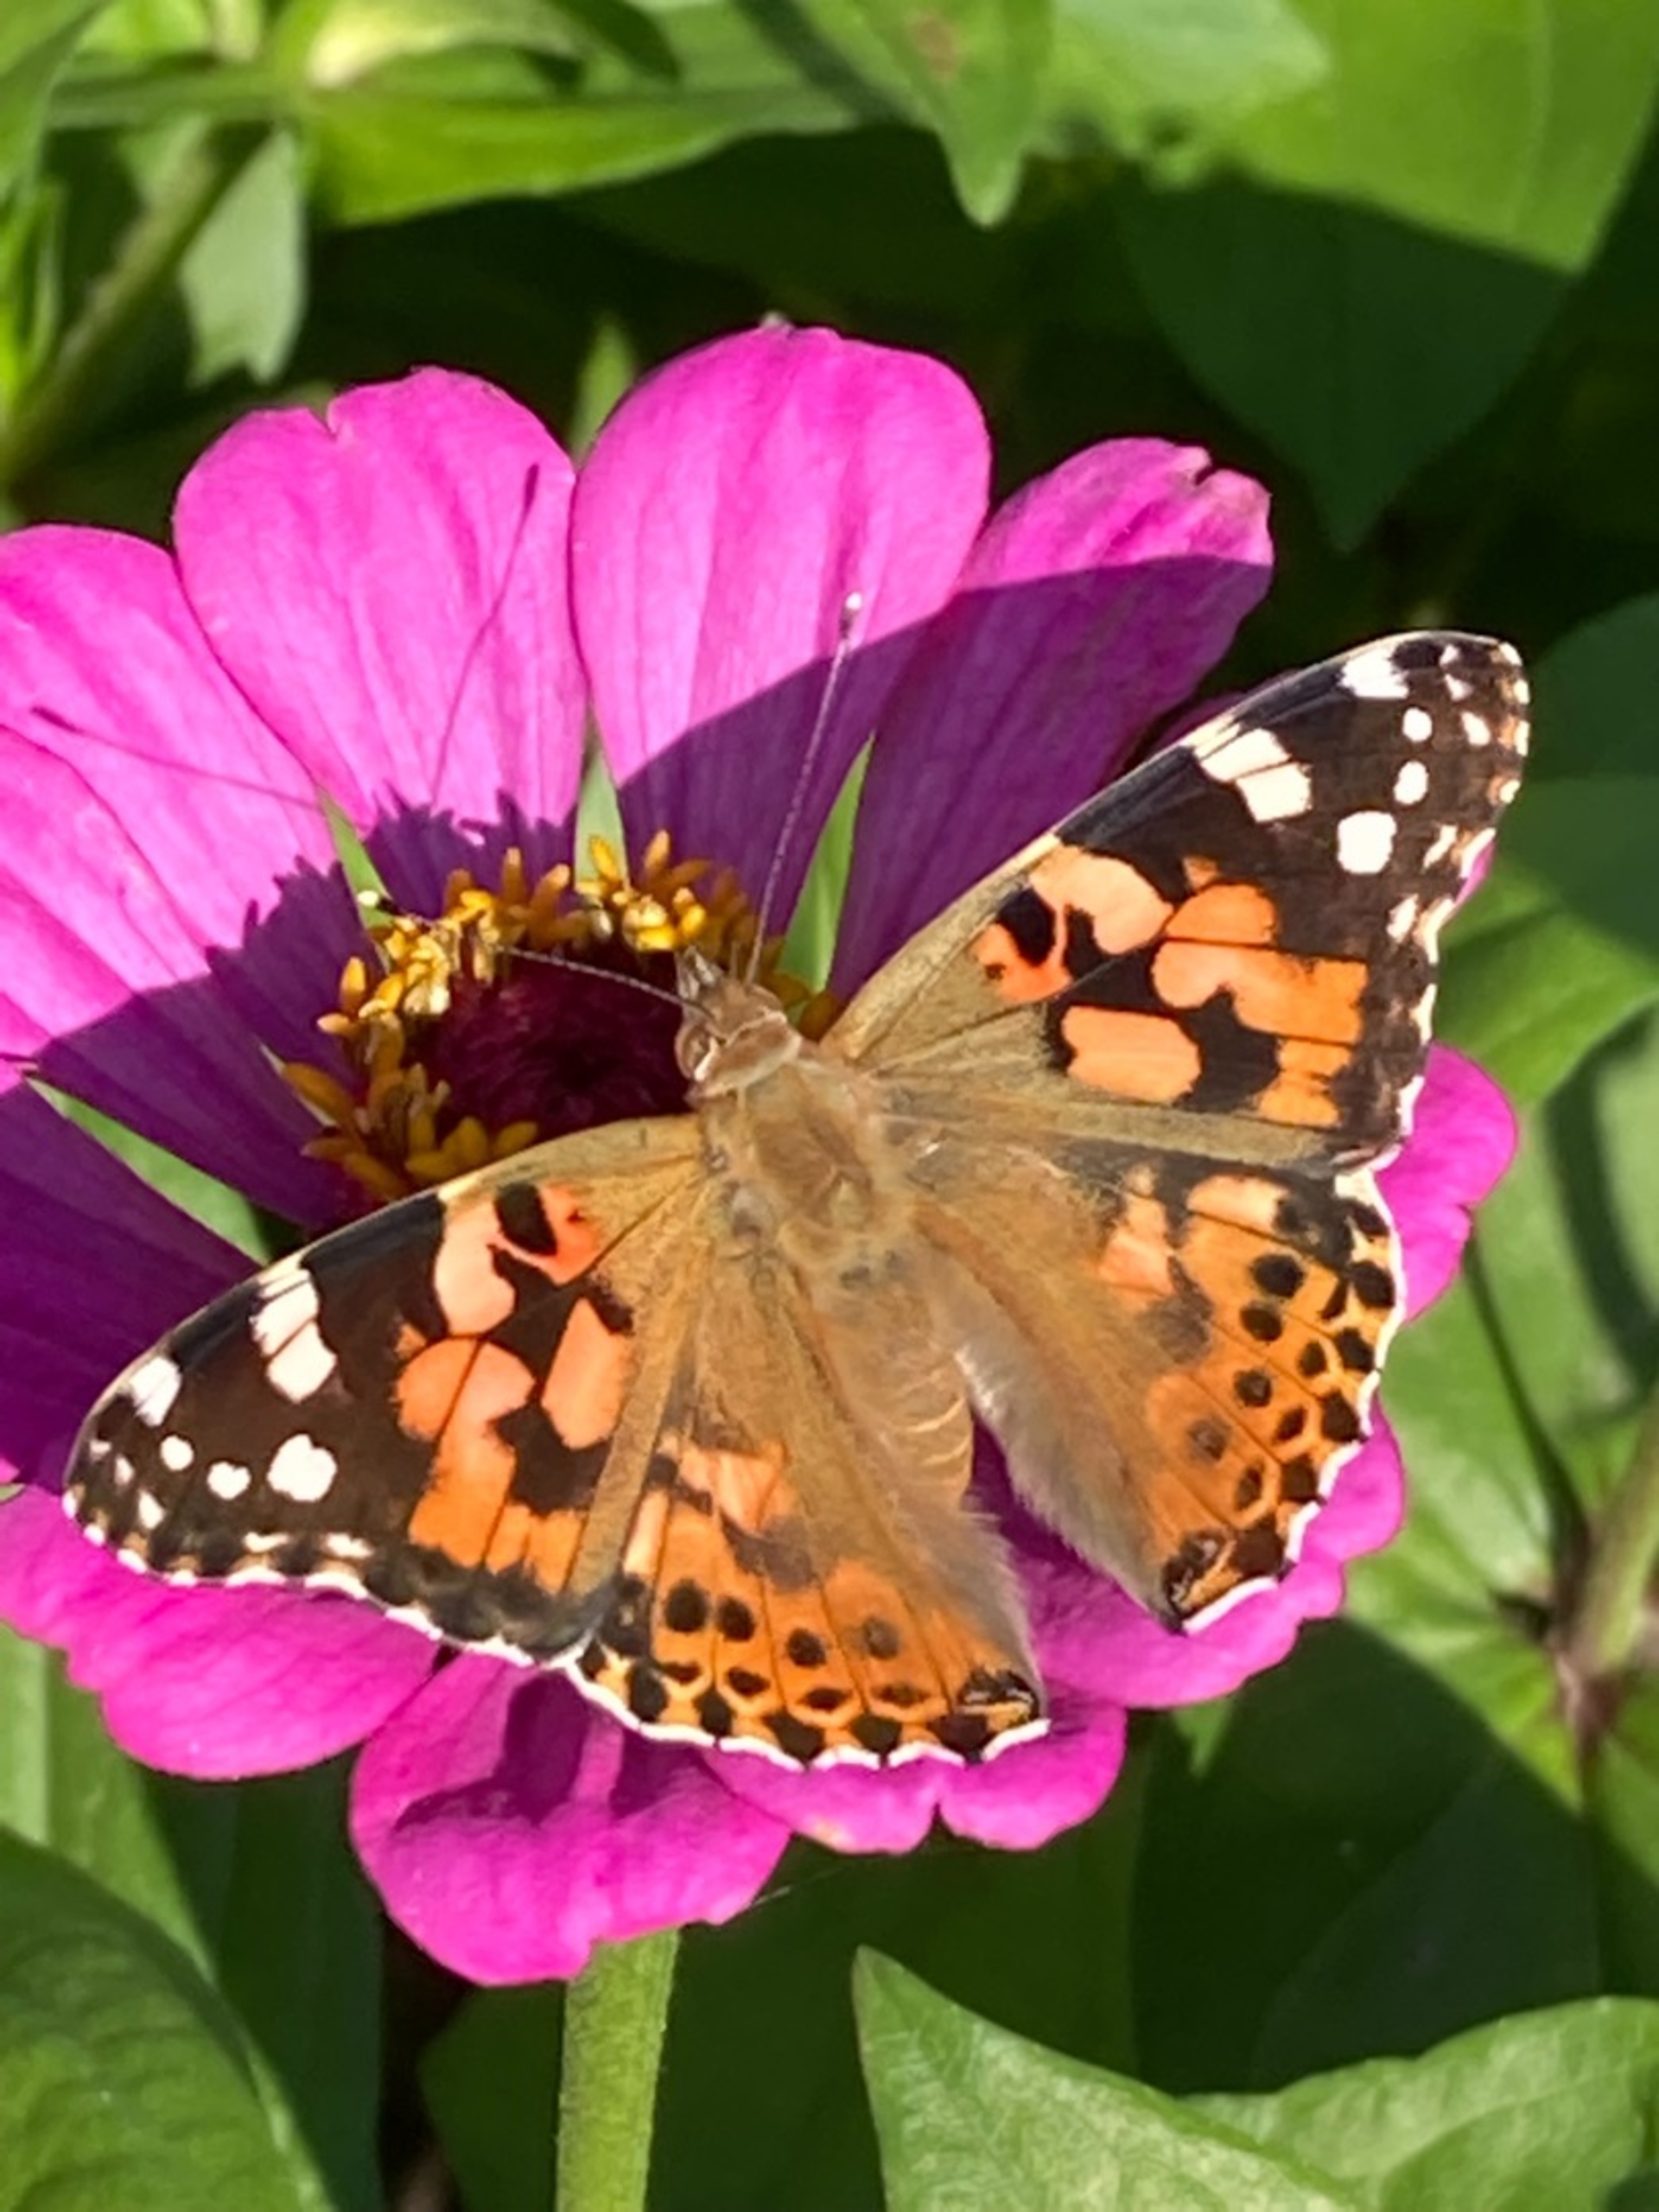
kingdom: Animalia
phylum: Arthropoda
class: Insecta
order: Lepidoptera
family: Nymphalidae
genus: Vanessa
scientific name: Vanessa cardui
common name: Tidselsommerfugl
